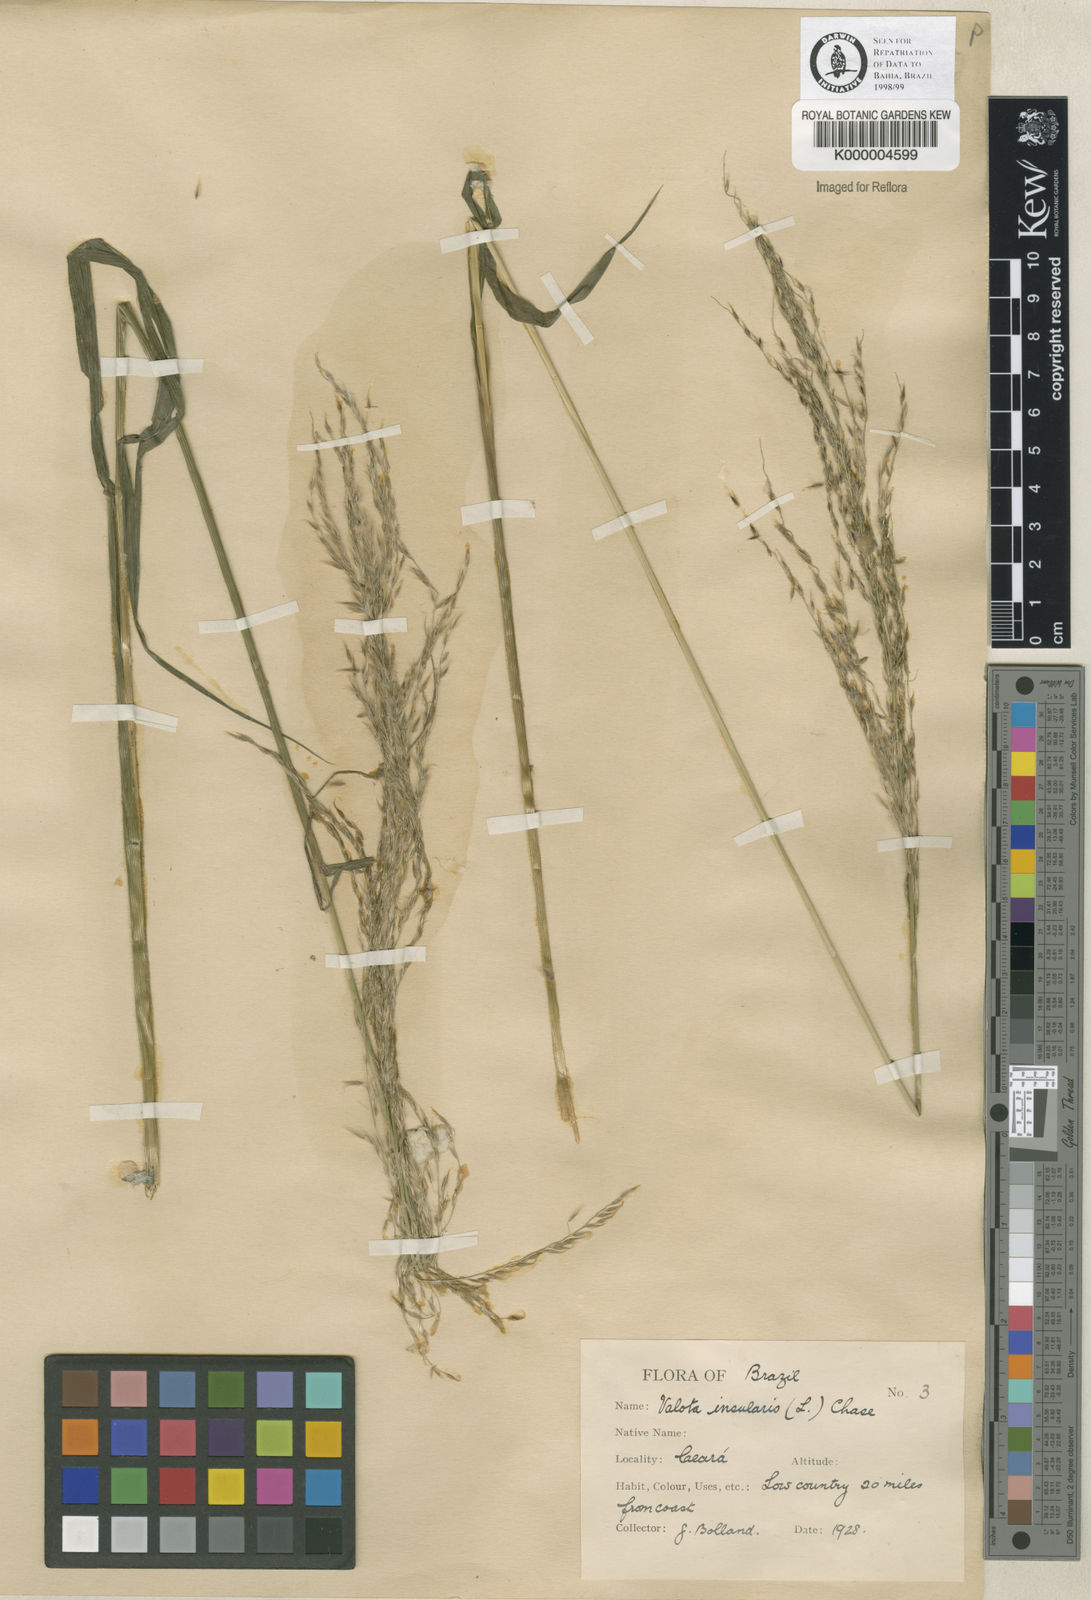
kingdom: Plantae
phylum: Tracheophyta
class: Liliopsida
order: Poales
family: Poaceae
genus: Digitaria
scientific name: Digitaria
